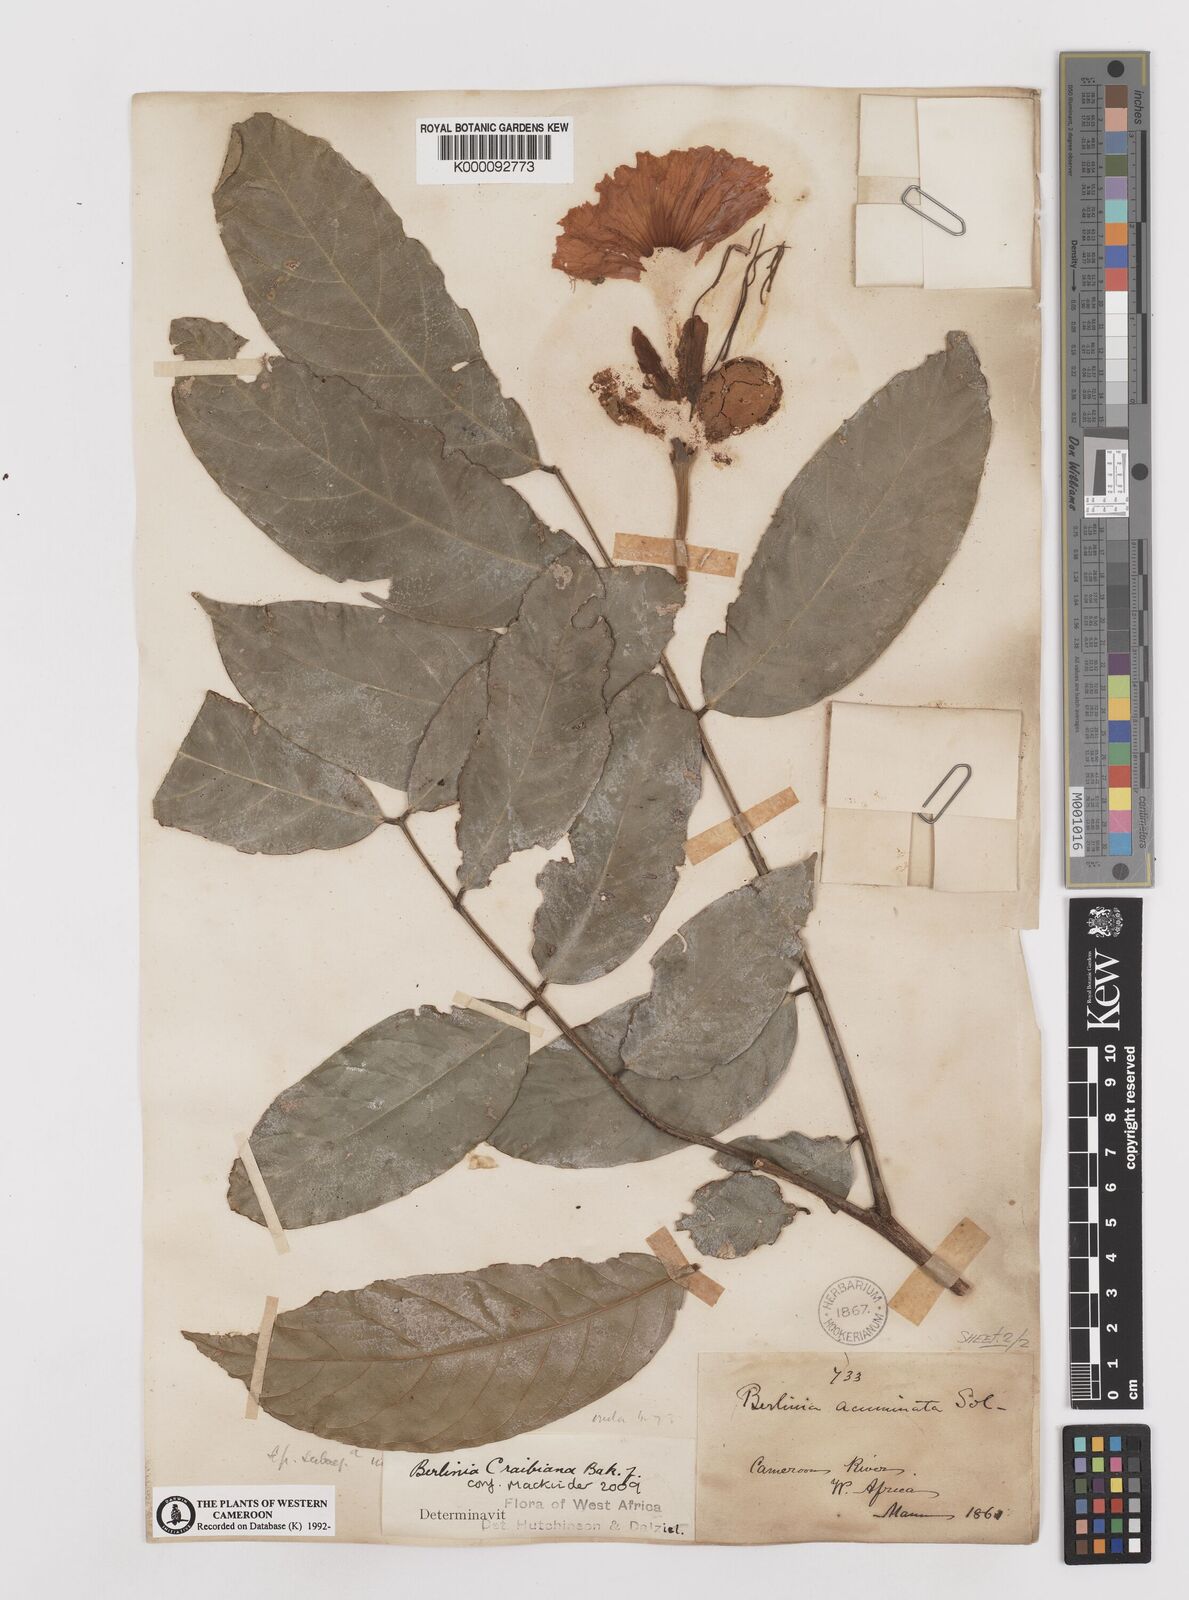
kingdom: Plantae
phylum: Tracheophyta
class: Magnoliopsida
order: Fabales
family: Fabaceae
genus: Berlinia
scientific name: Berlinia craibiana
